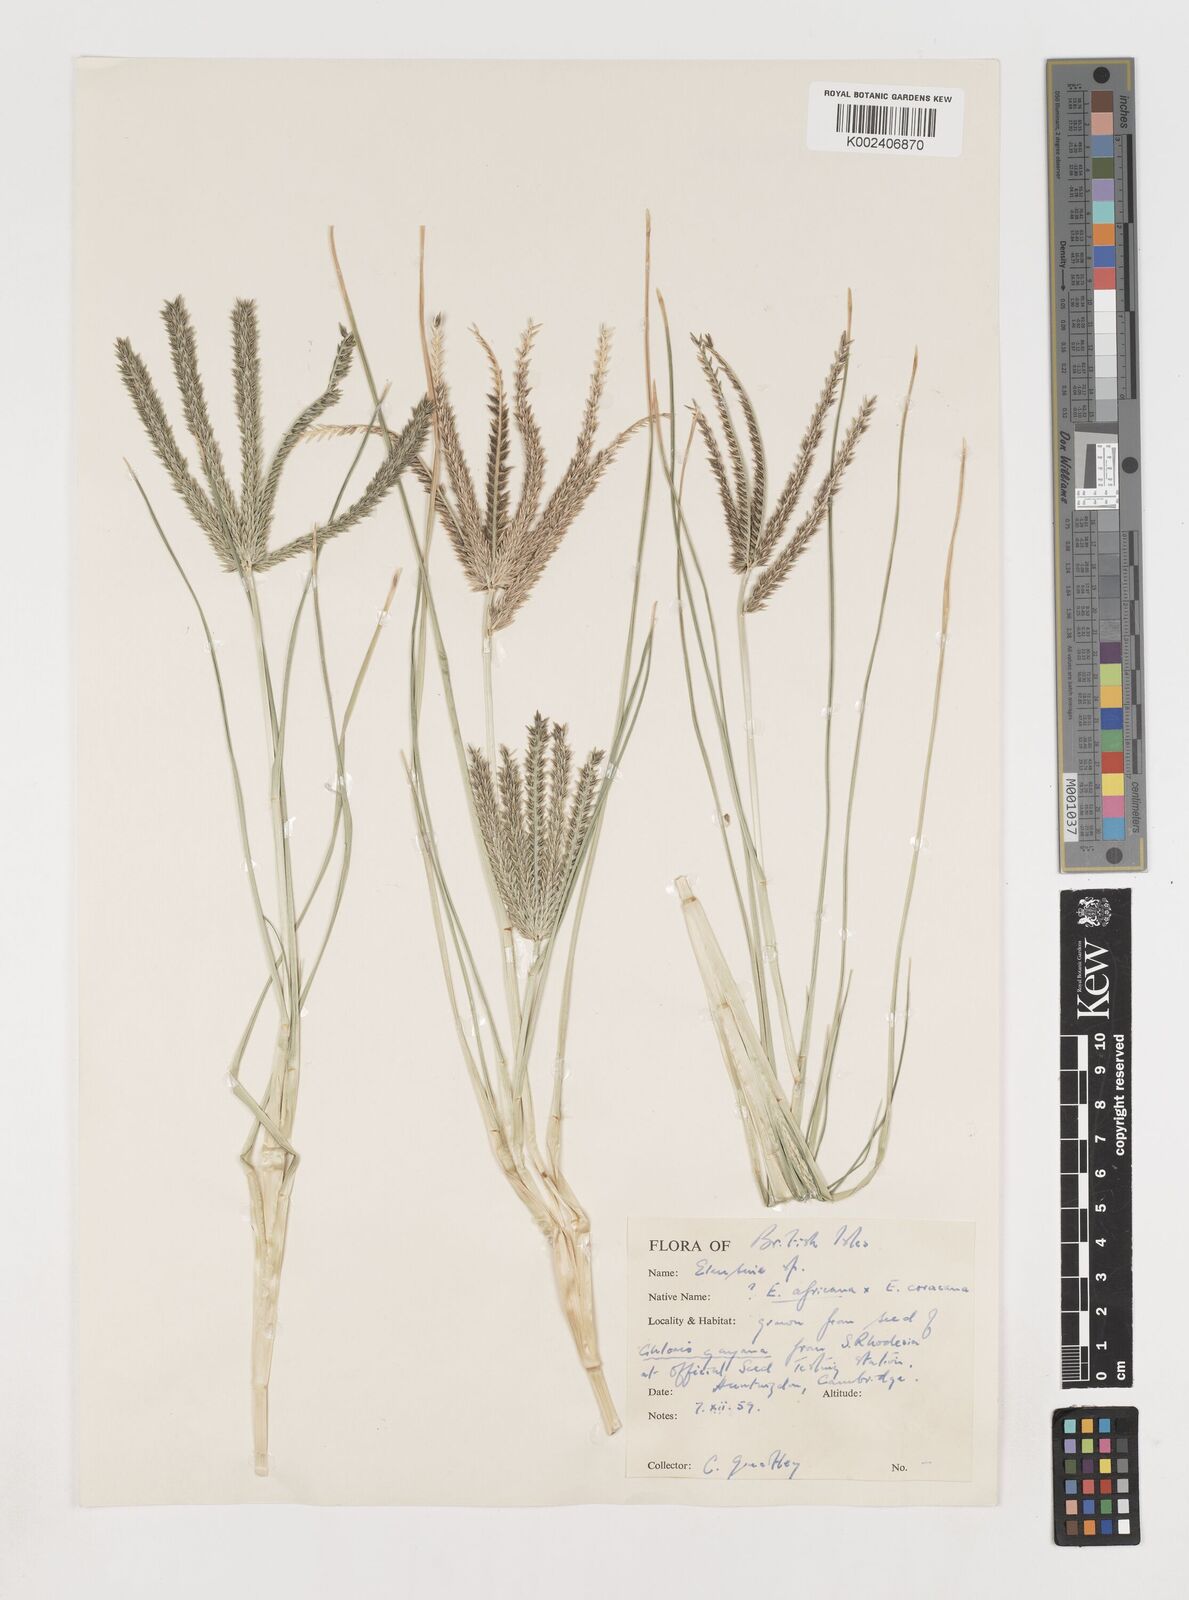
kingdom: Plantae
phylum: Tracheophyta
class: Liliopsida
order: Poales
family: Poaceae
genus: Eleusine
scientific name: Eleusine
